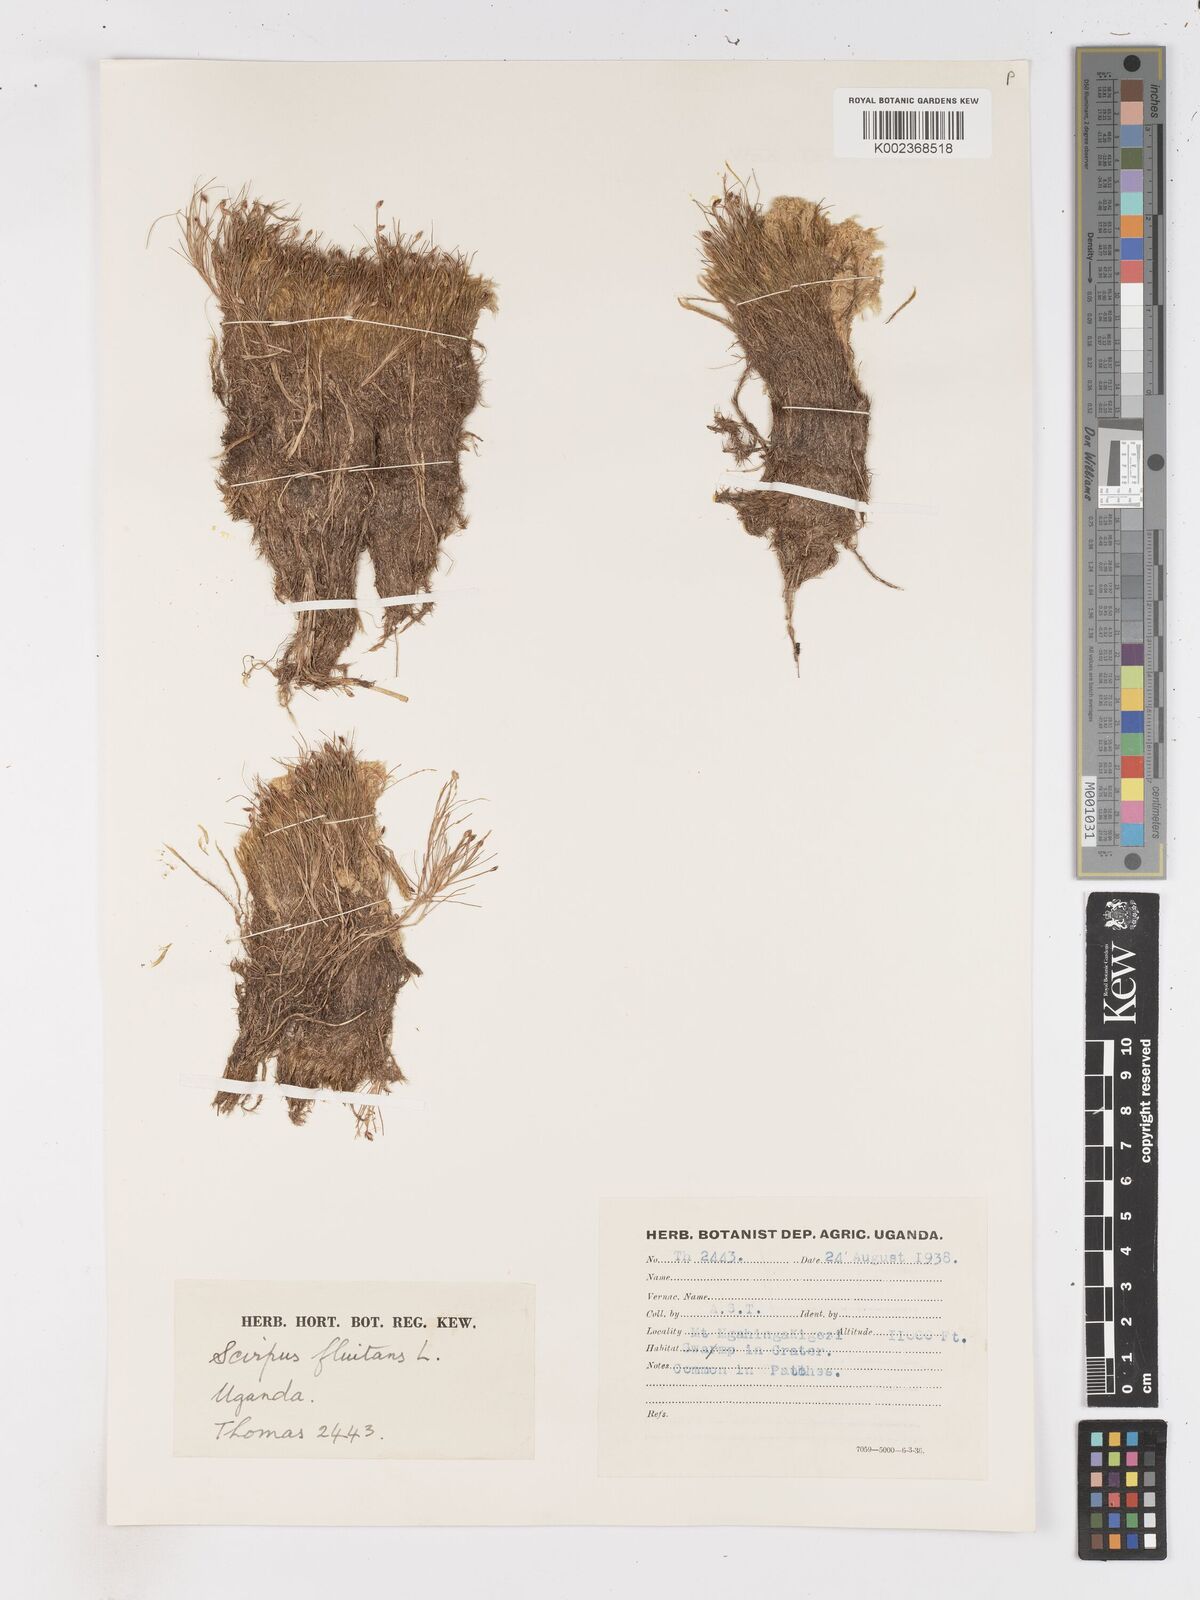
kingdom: Plantae
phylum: Tracheophyta
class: Liliopsida
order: Poales
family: Cyperaceae
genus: Isolepis
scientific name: Isolepis fluitans
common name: Floating club-rush
